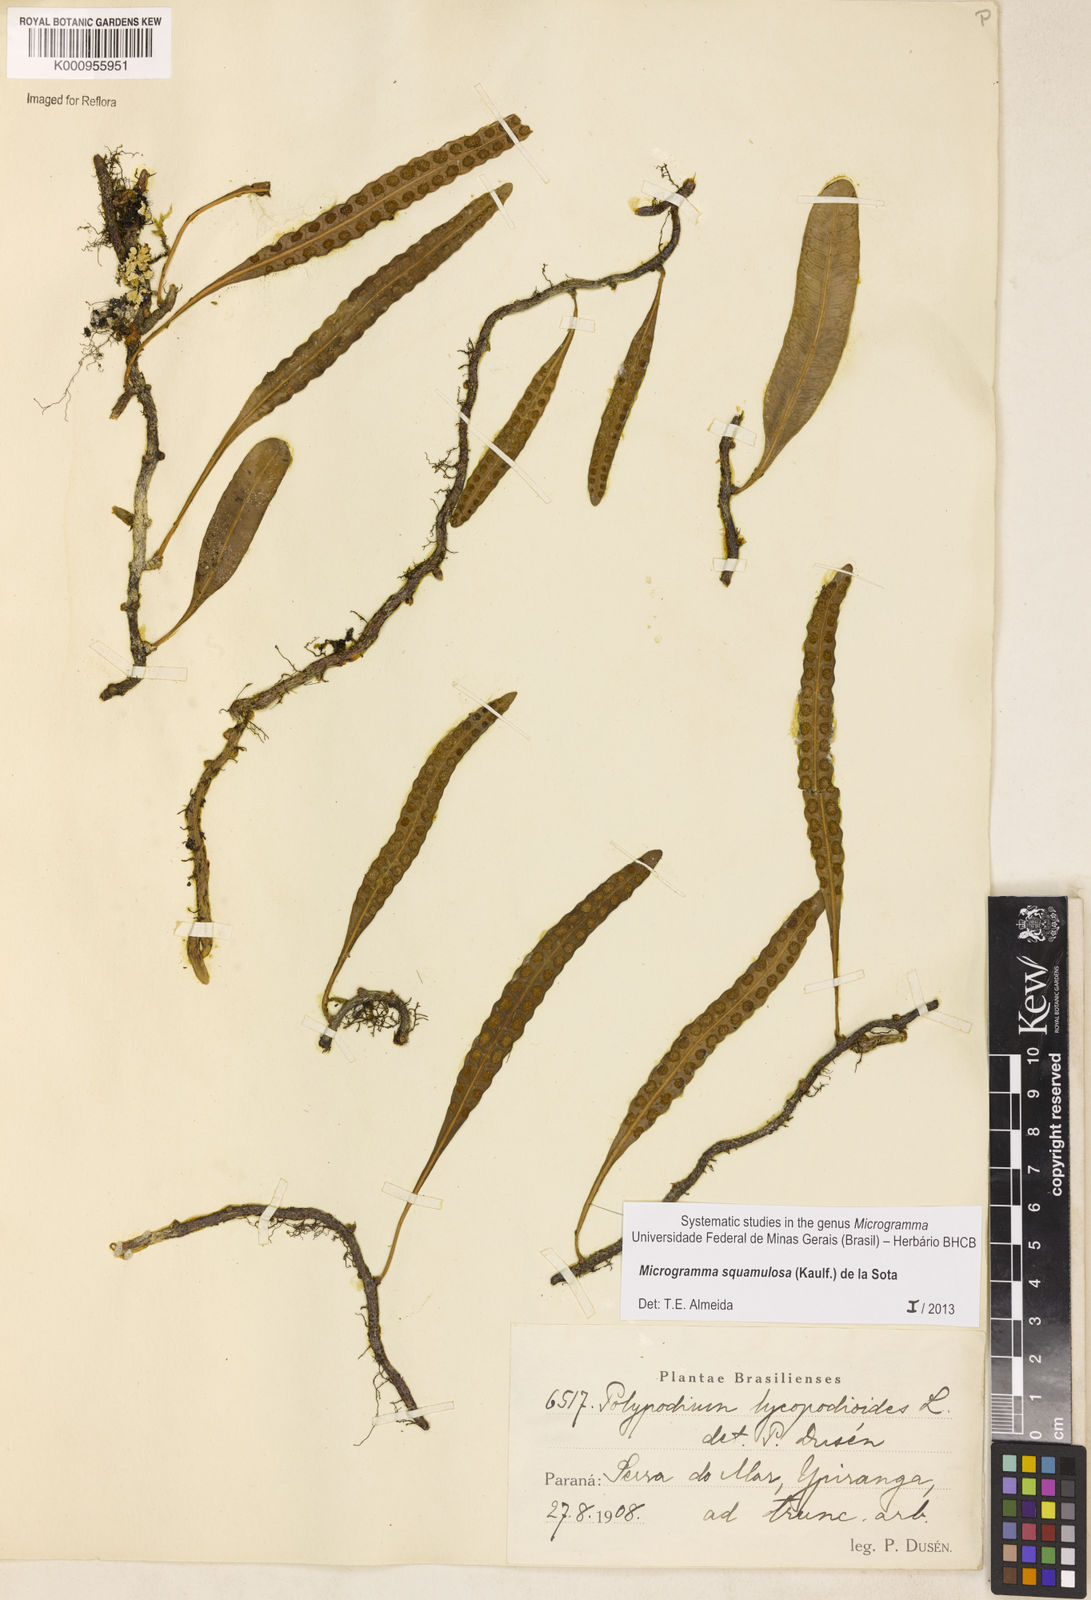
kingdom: Plantae
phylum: Tracheophyta
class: Polypodiopsida
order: Polypodiales
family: Polypodiaceae
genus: Microgramma
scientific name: Microgramma squamulosa
